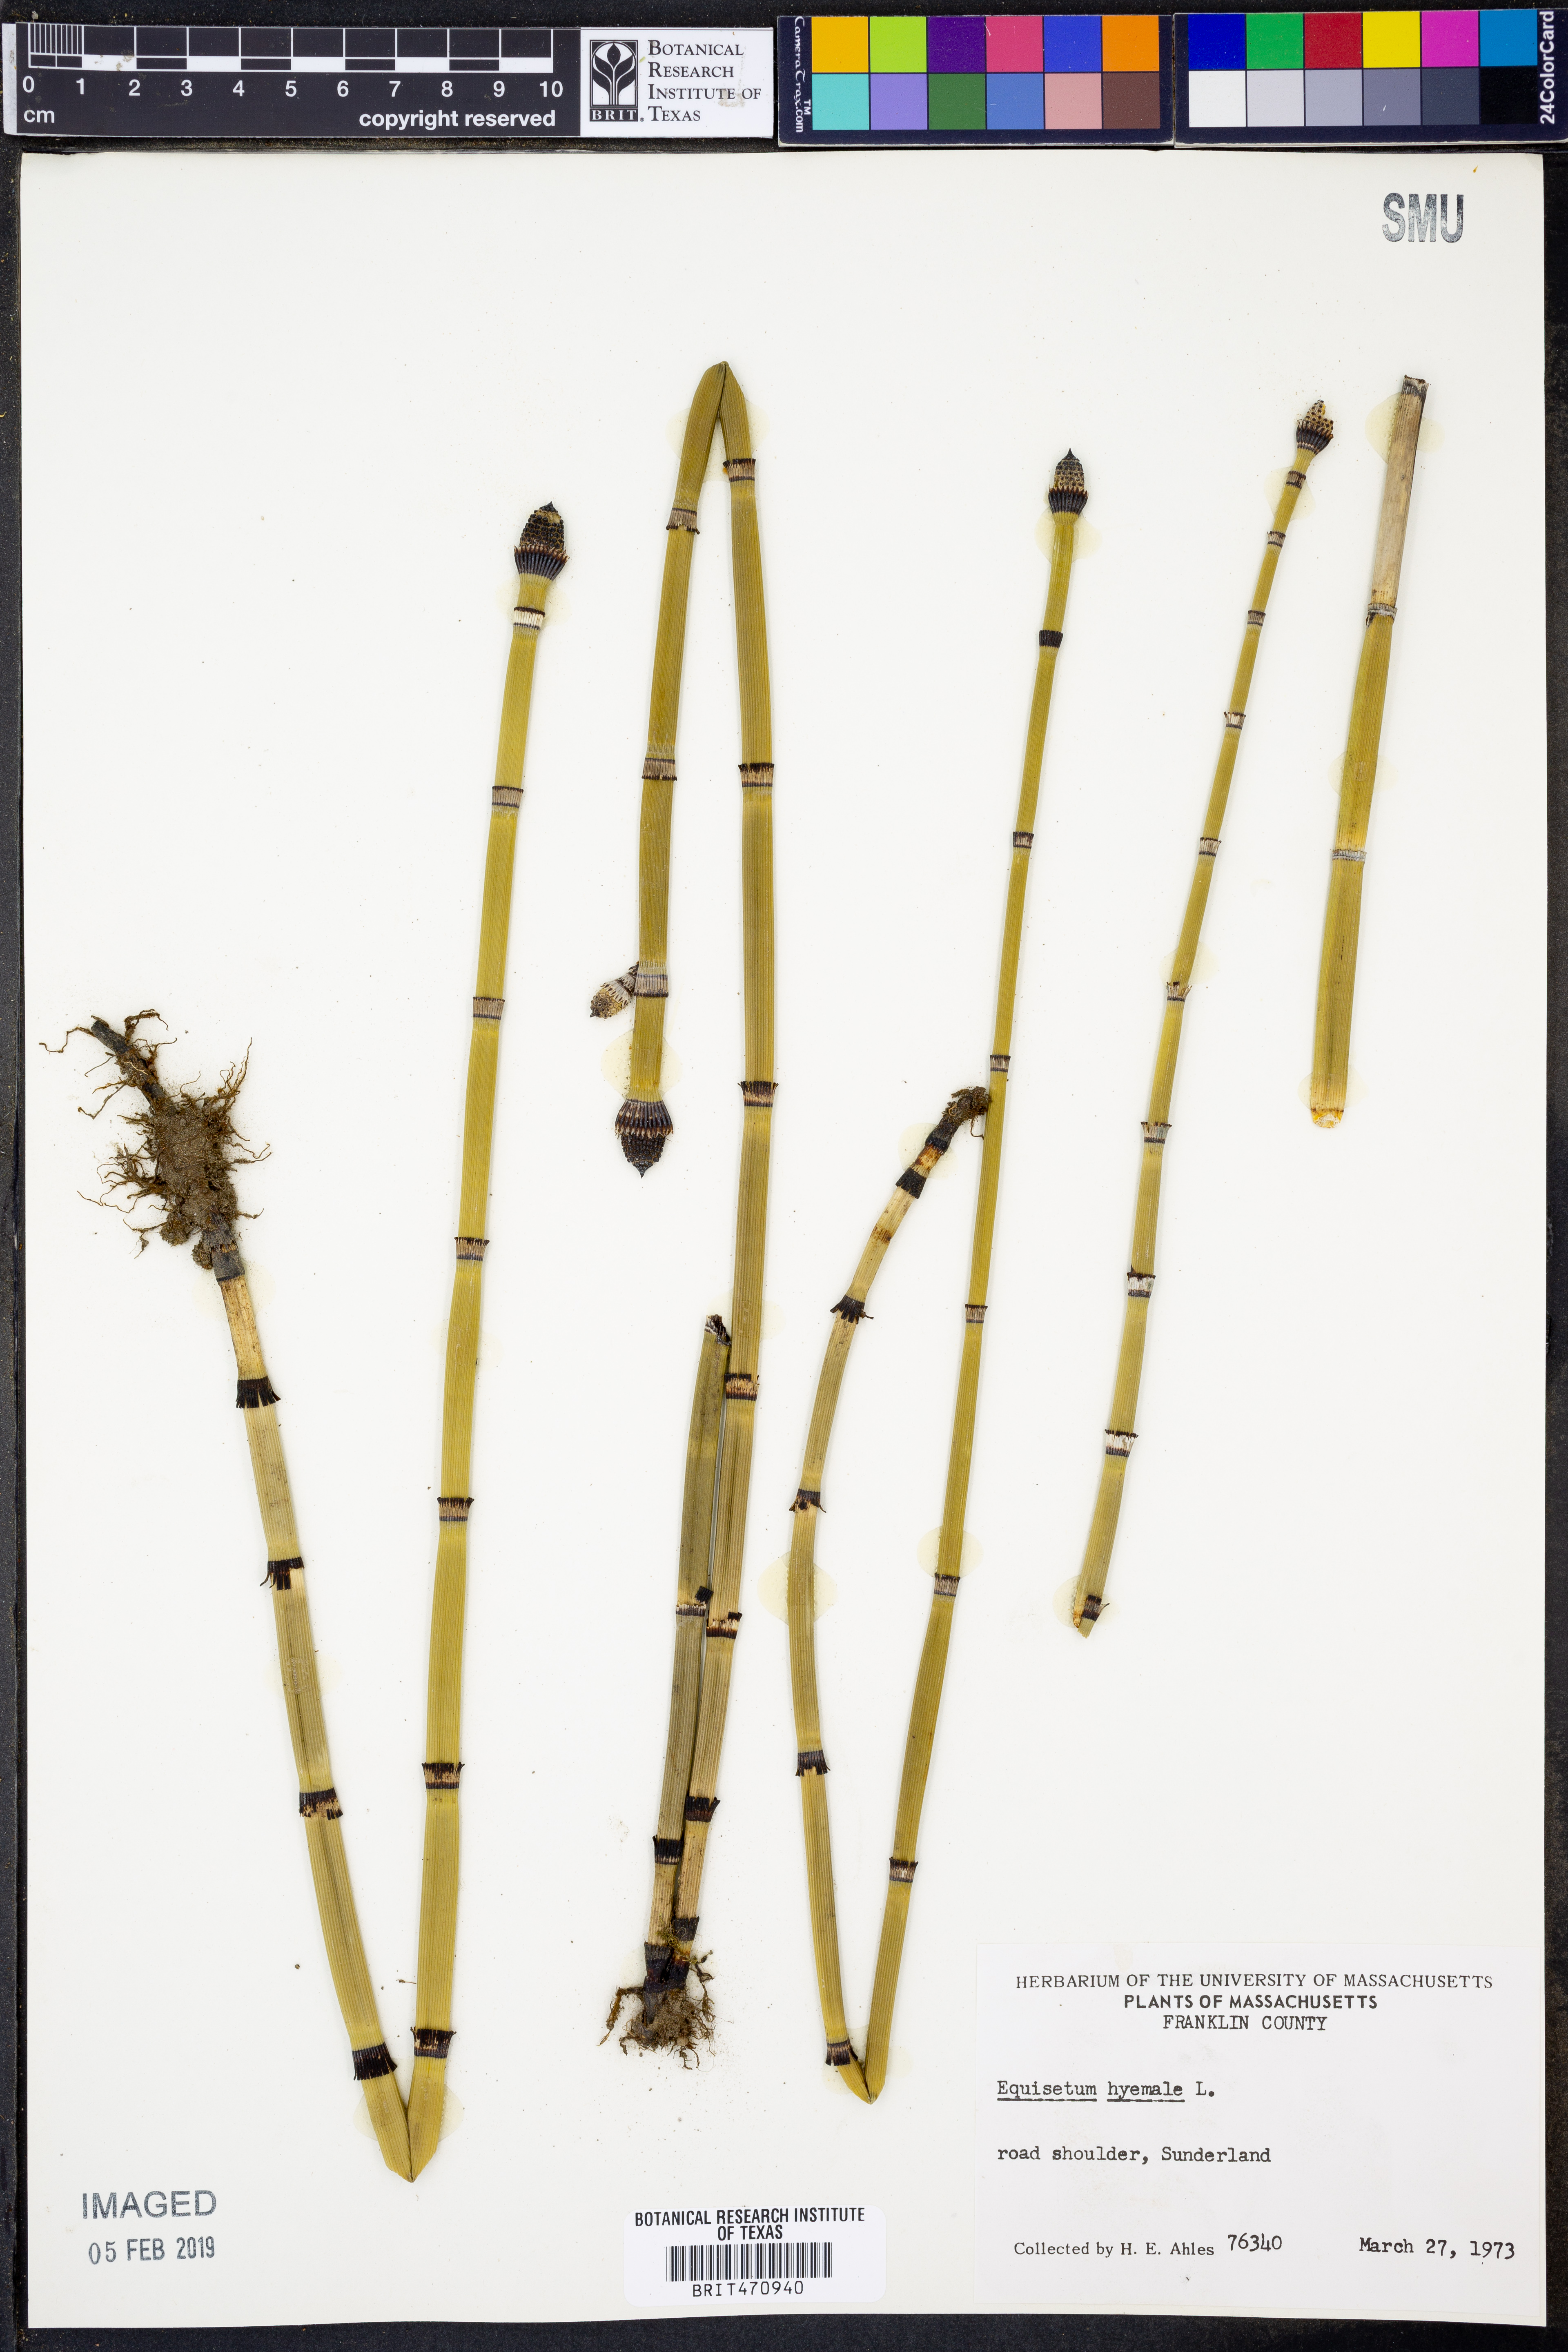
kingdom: Plantae
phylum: Tracheophyta
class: Polypodiopsida
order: Equisetales
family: Equisetaceae
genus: Equisetum
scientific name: Equisetum hyemale
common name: Rough horsetail
